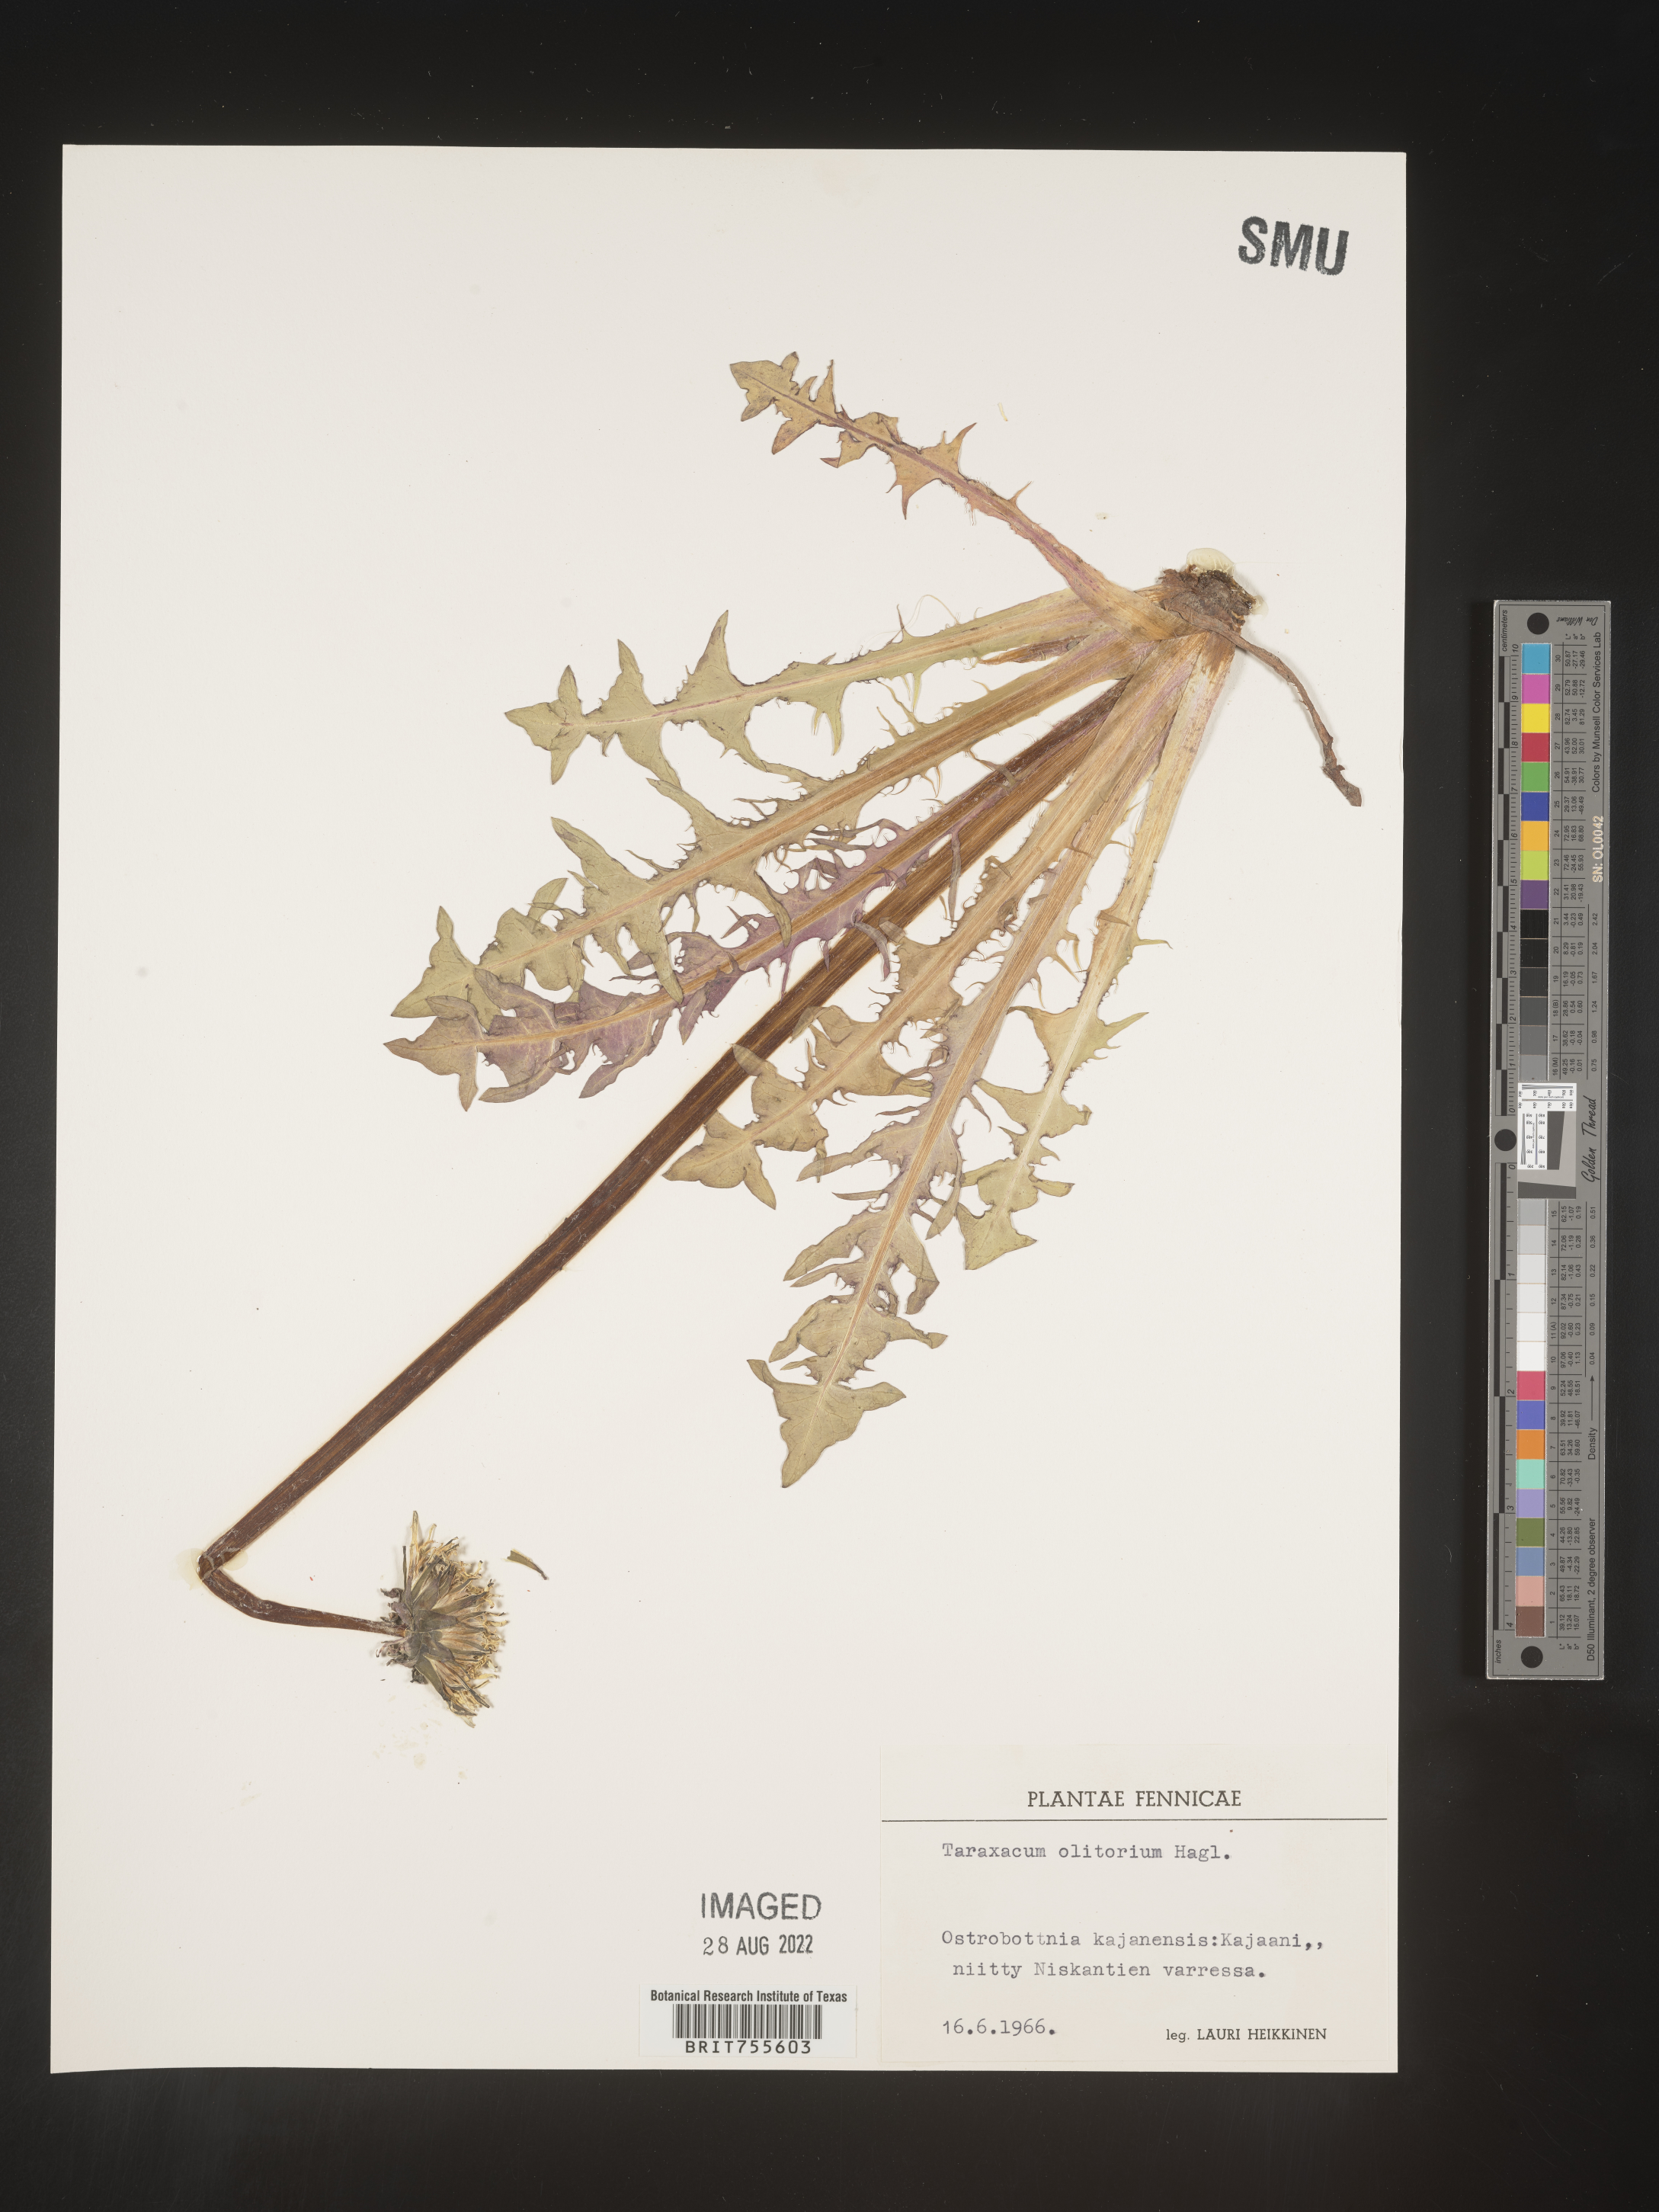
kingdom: Plantae
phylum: Tracheophyta
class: Magnoliopsida
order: Asterales
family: Asteraceae
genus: Taraxacum
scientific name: Taraxacum
